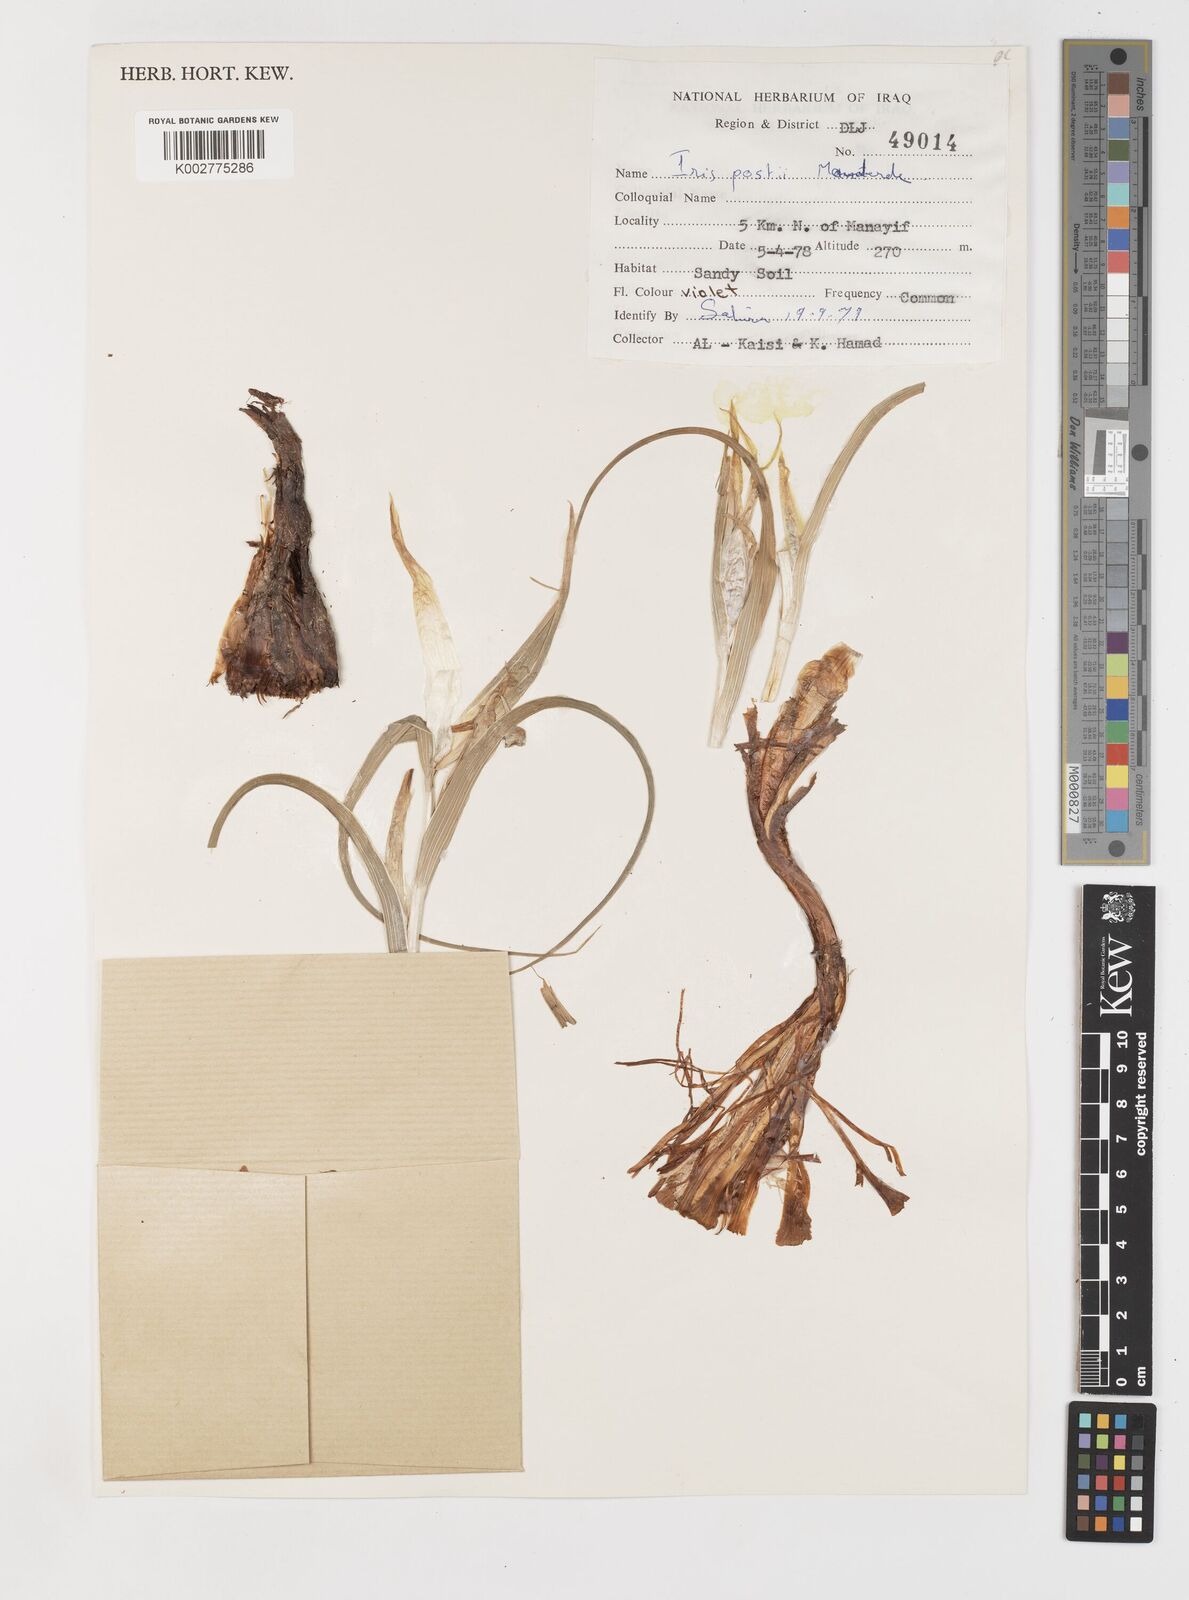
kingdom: Plantae
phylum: Tracheophyta
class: Liliopsida
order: Asparagales
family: Iridaceae
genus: Iris
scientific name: Iris postii
